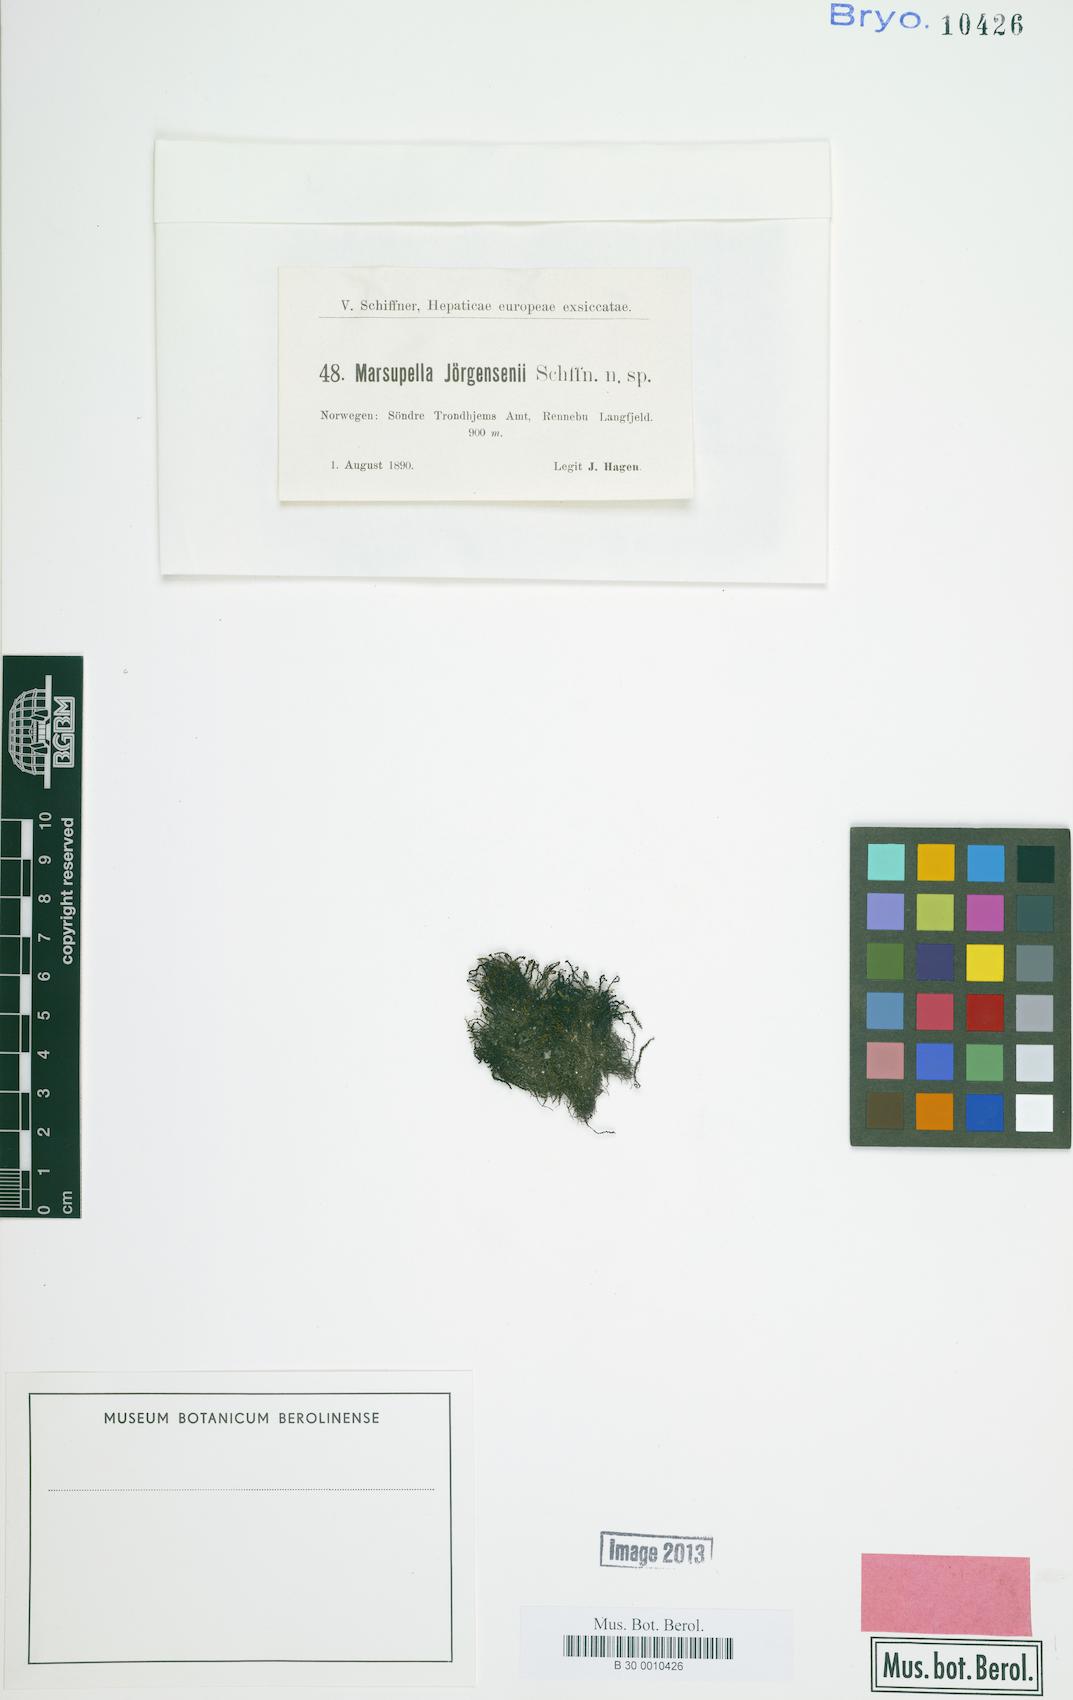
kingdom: Plantae
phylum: Marchantiophyta
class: Jungermanniopsida
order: Jungermanniales
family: Gymnomitriaceae
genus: Marsupella
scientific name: Marsupella
